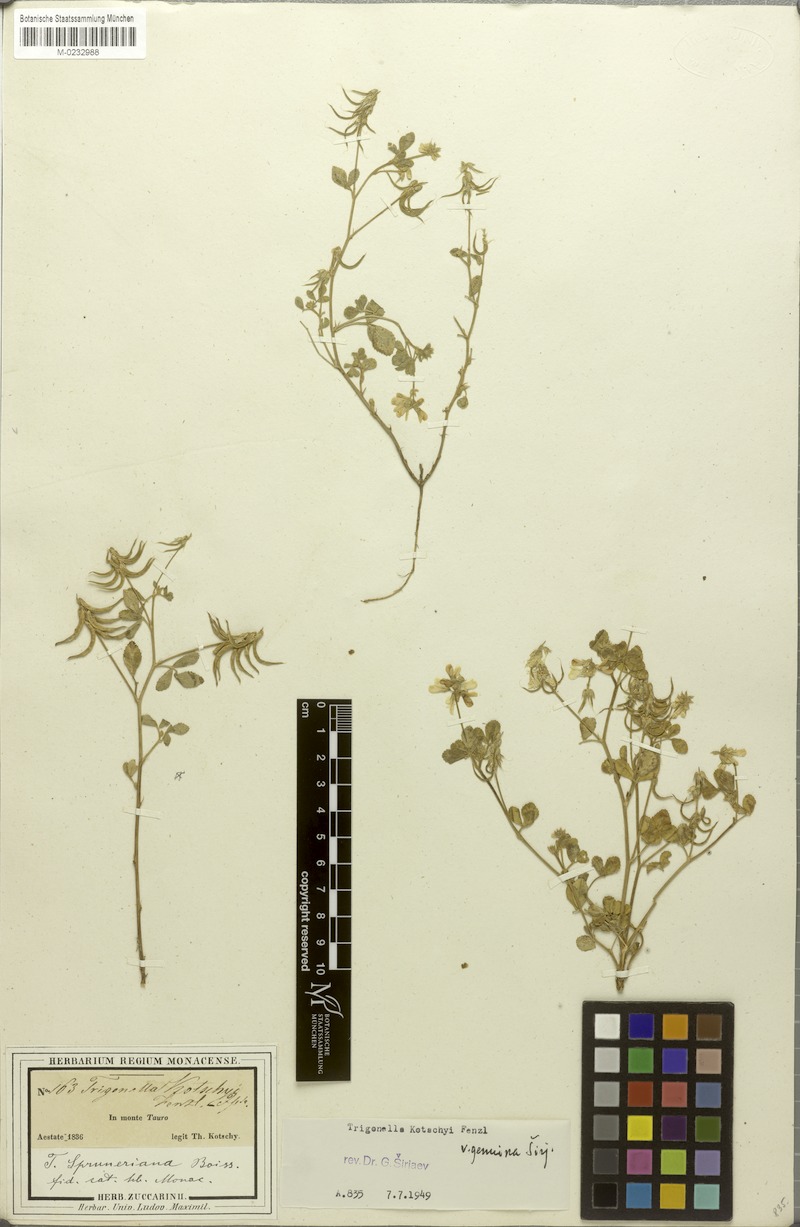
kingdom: Plantae
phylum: Tracheophyta
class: Magnoliopsida
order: Fabales
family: Fabaceae
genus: Trigonella
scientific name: Trigonella spruneriana
